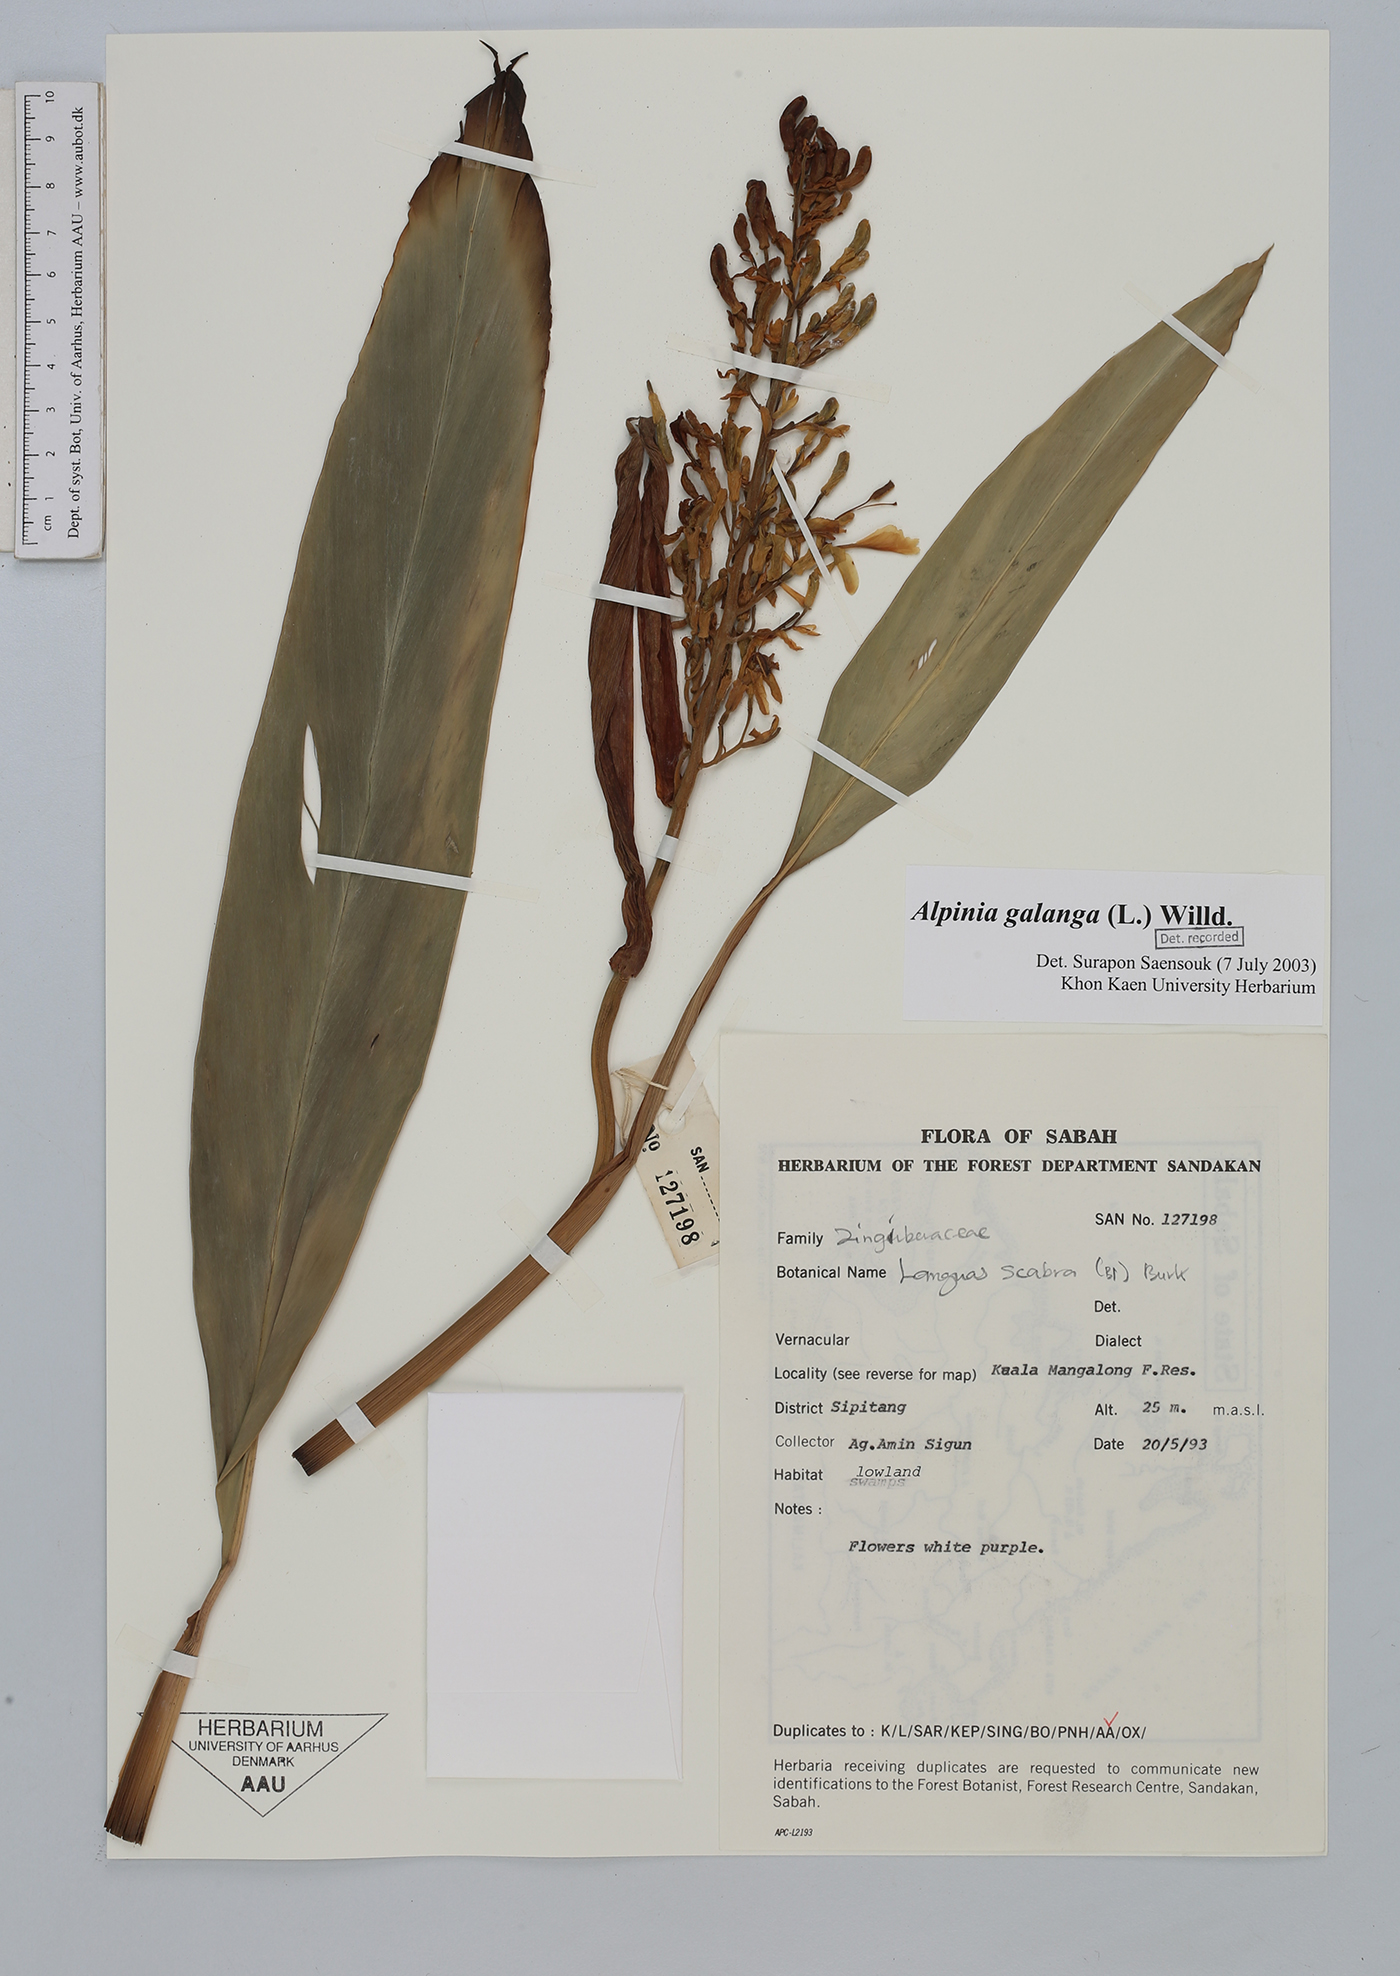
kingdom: Plantae
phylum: Tracheophyta
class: Liliopsida
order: Zingiberales
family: Zingiberaceae
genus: Alpinia
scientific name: Alpinia galanga
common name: Siamese-ginger
